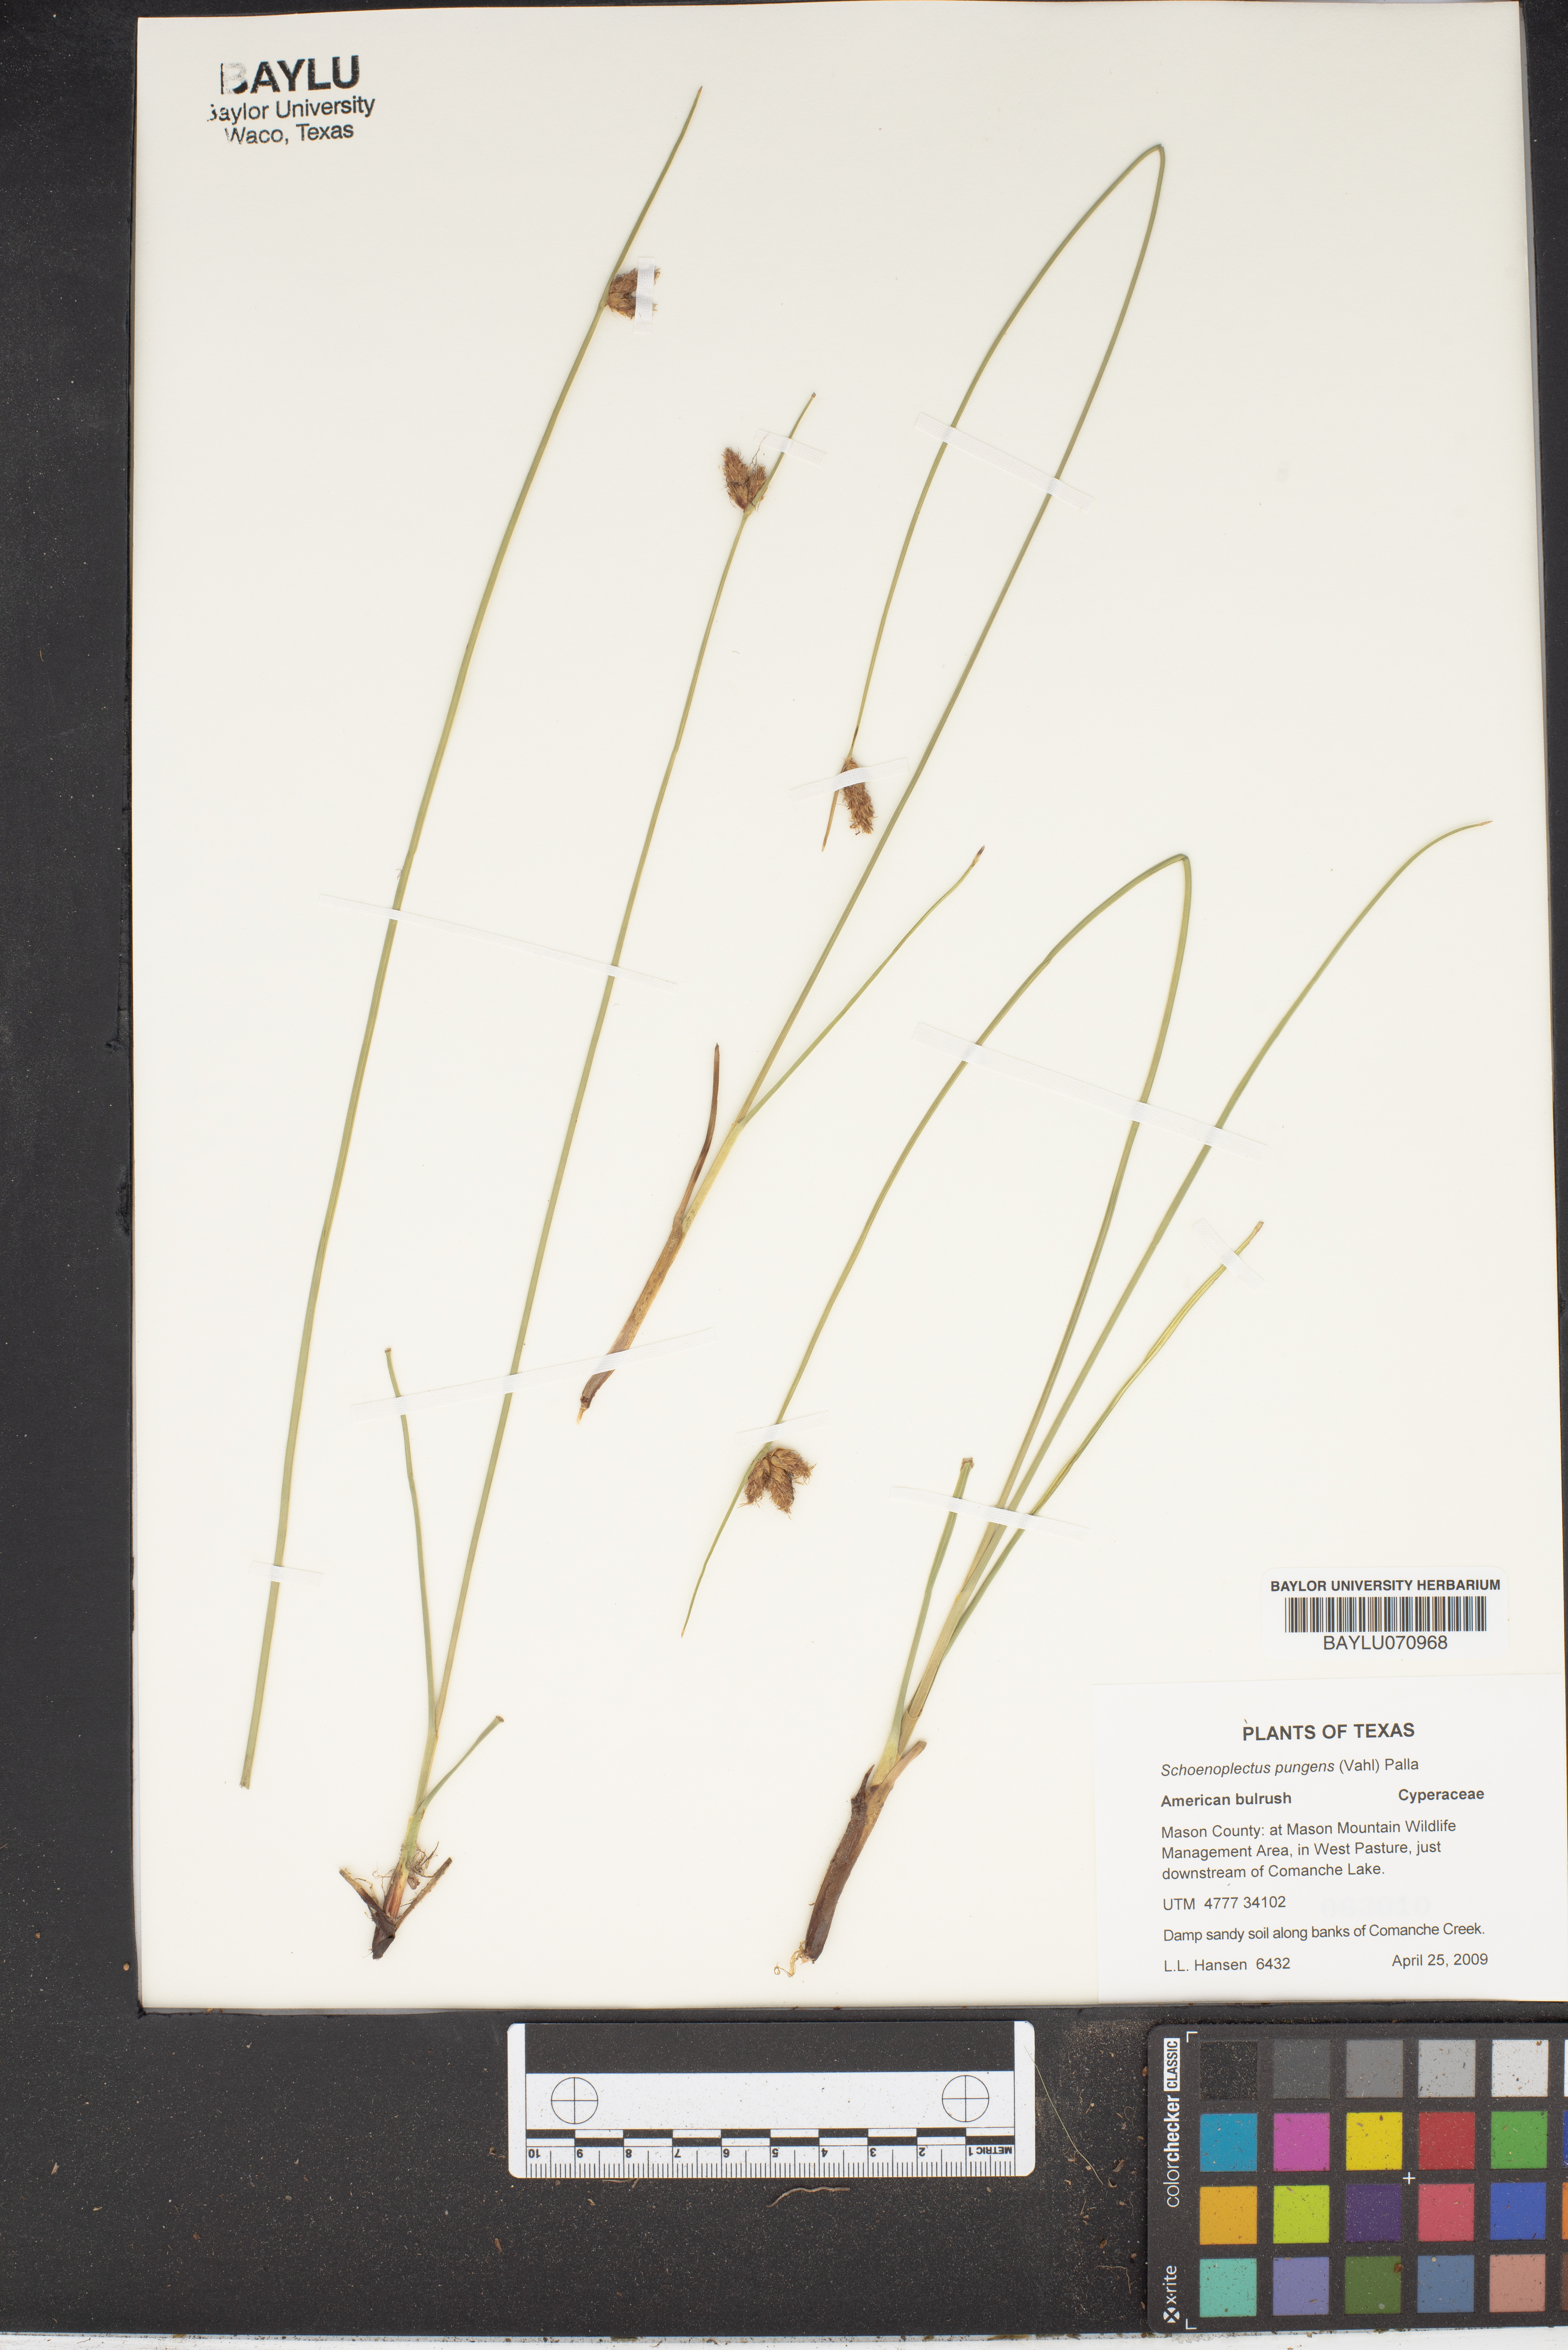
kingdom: Plantae
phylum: Tracheophyta
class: Liliopsida
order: Poales
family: Cyperaceae
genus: Schoenoplectus
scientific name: Schoenoplectus pungens
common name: Sharp club-rush
